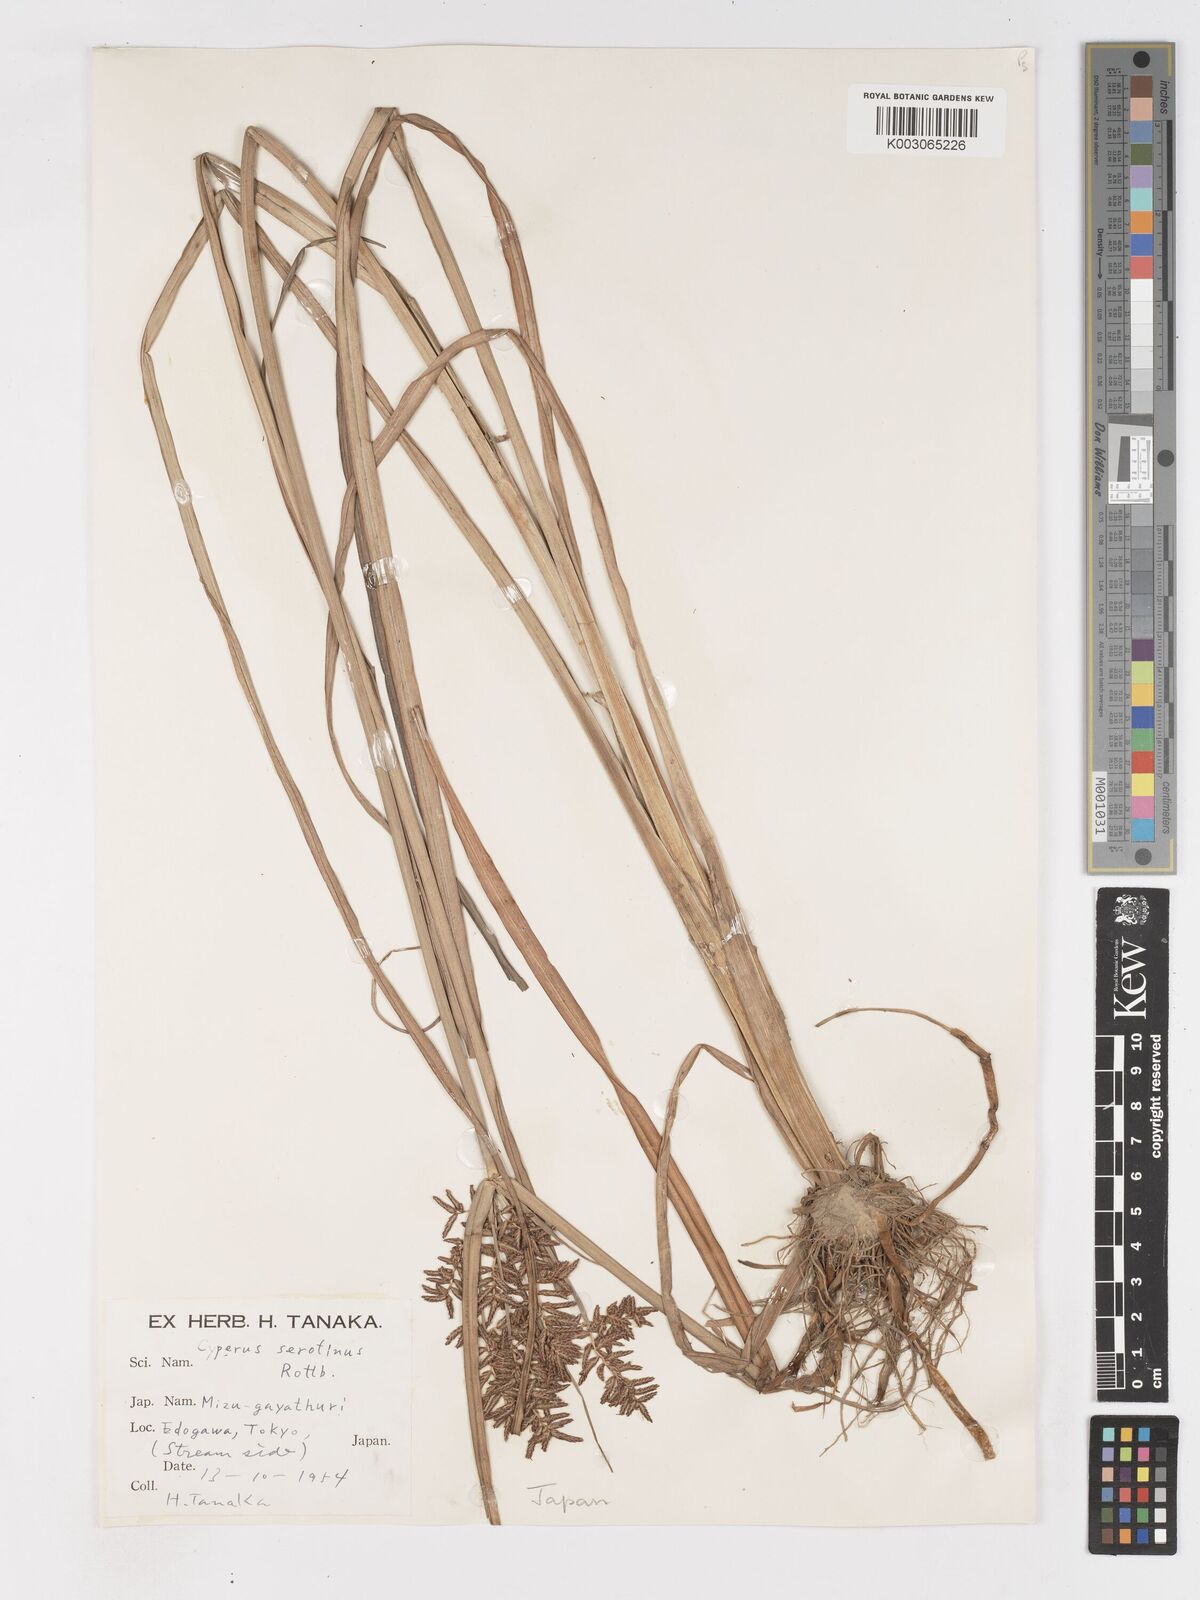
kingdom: Plantae
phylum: Tracheophyta
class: Liliopsida
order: Poales
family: Cyperaceae
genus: Cyperus
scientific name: Cyperus serotinus
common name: Tidalmarsh flatsedge
